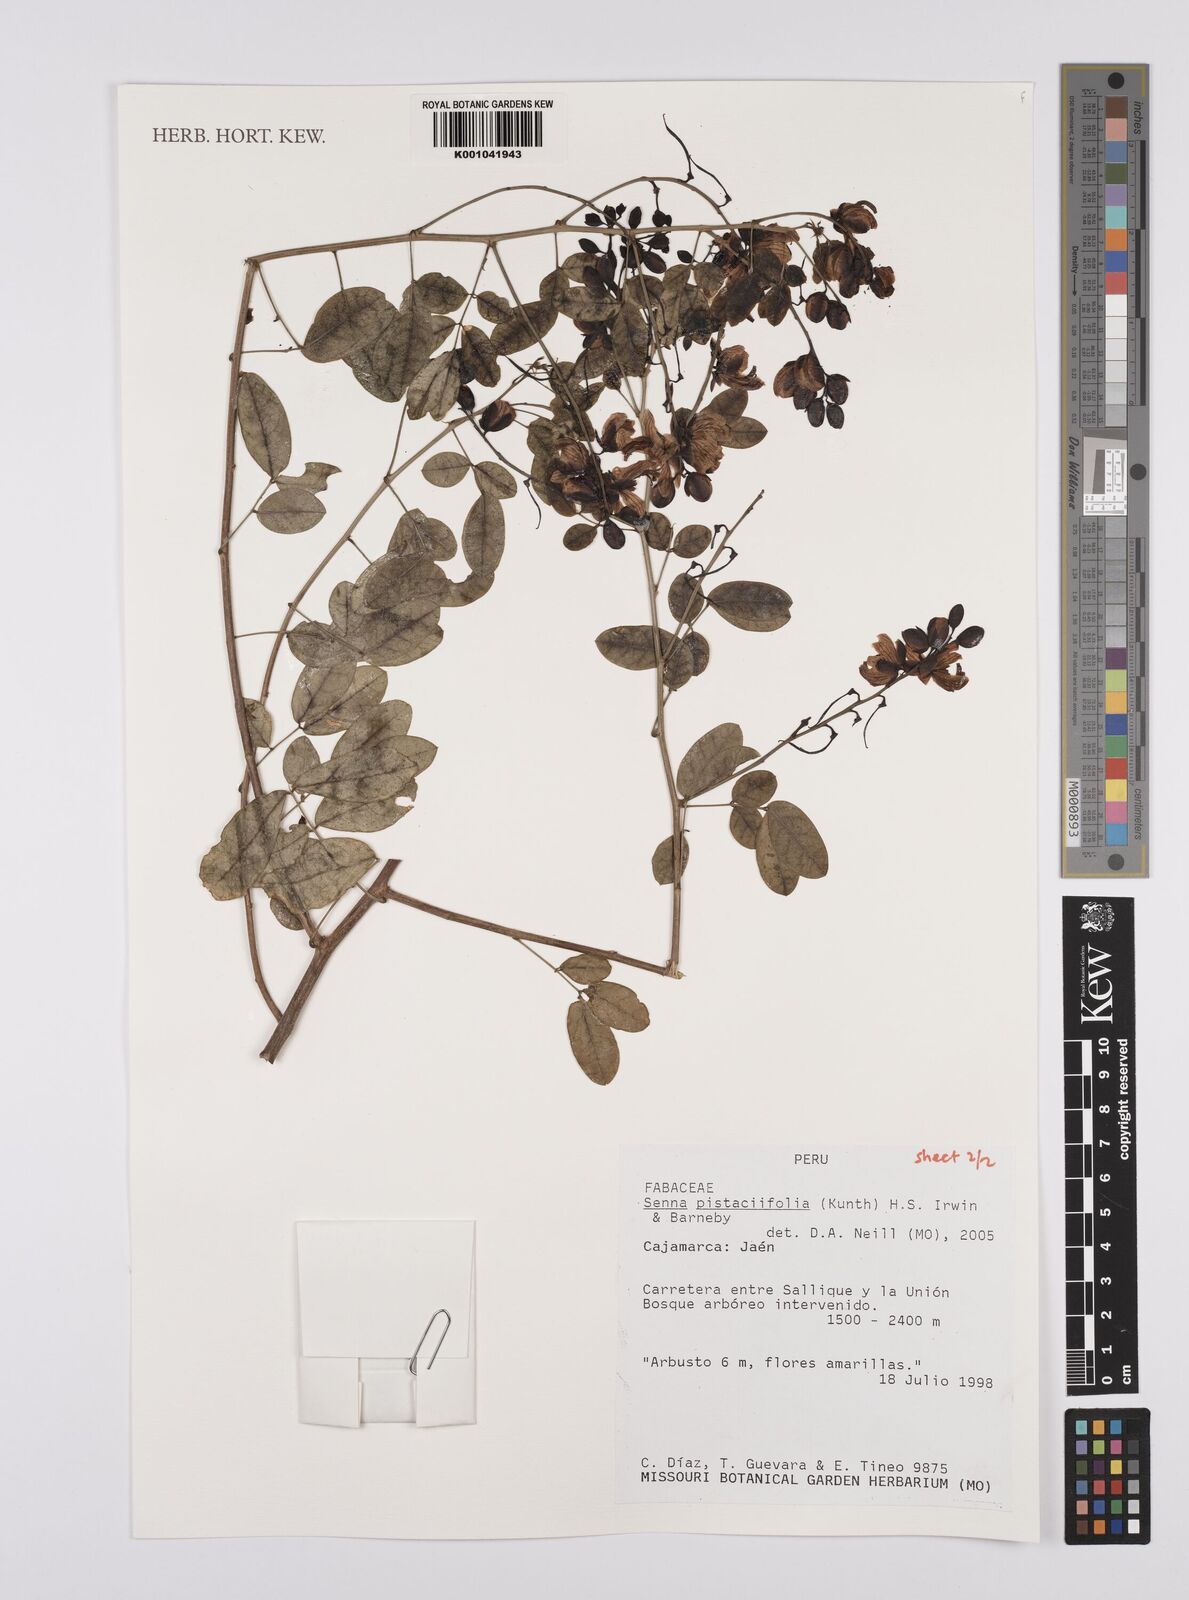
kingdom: Plantae
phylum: Tracheophyta
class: Magnoliopsida
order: Fabales
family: Fabaceae
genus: Senna
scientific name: Senna pistaciifolia
